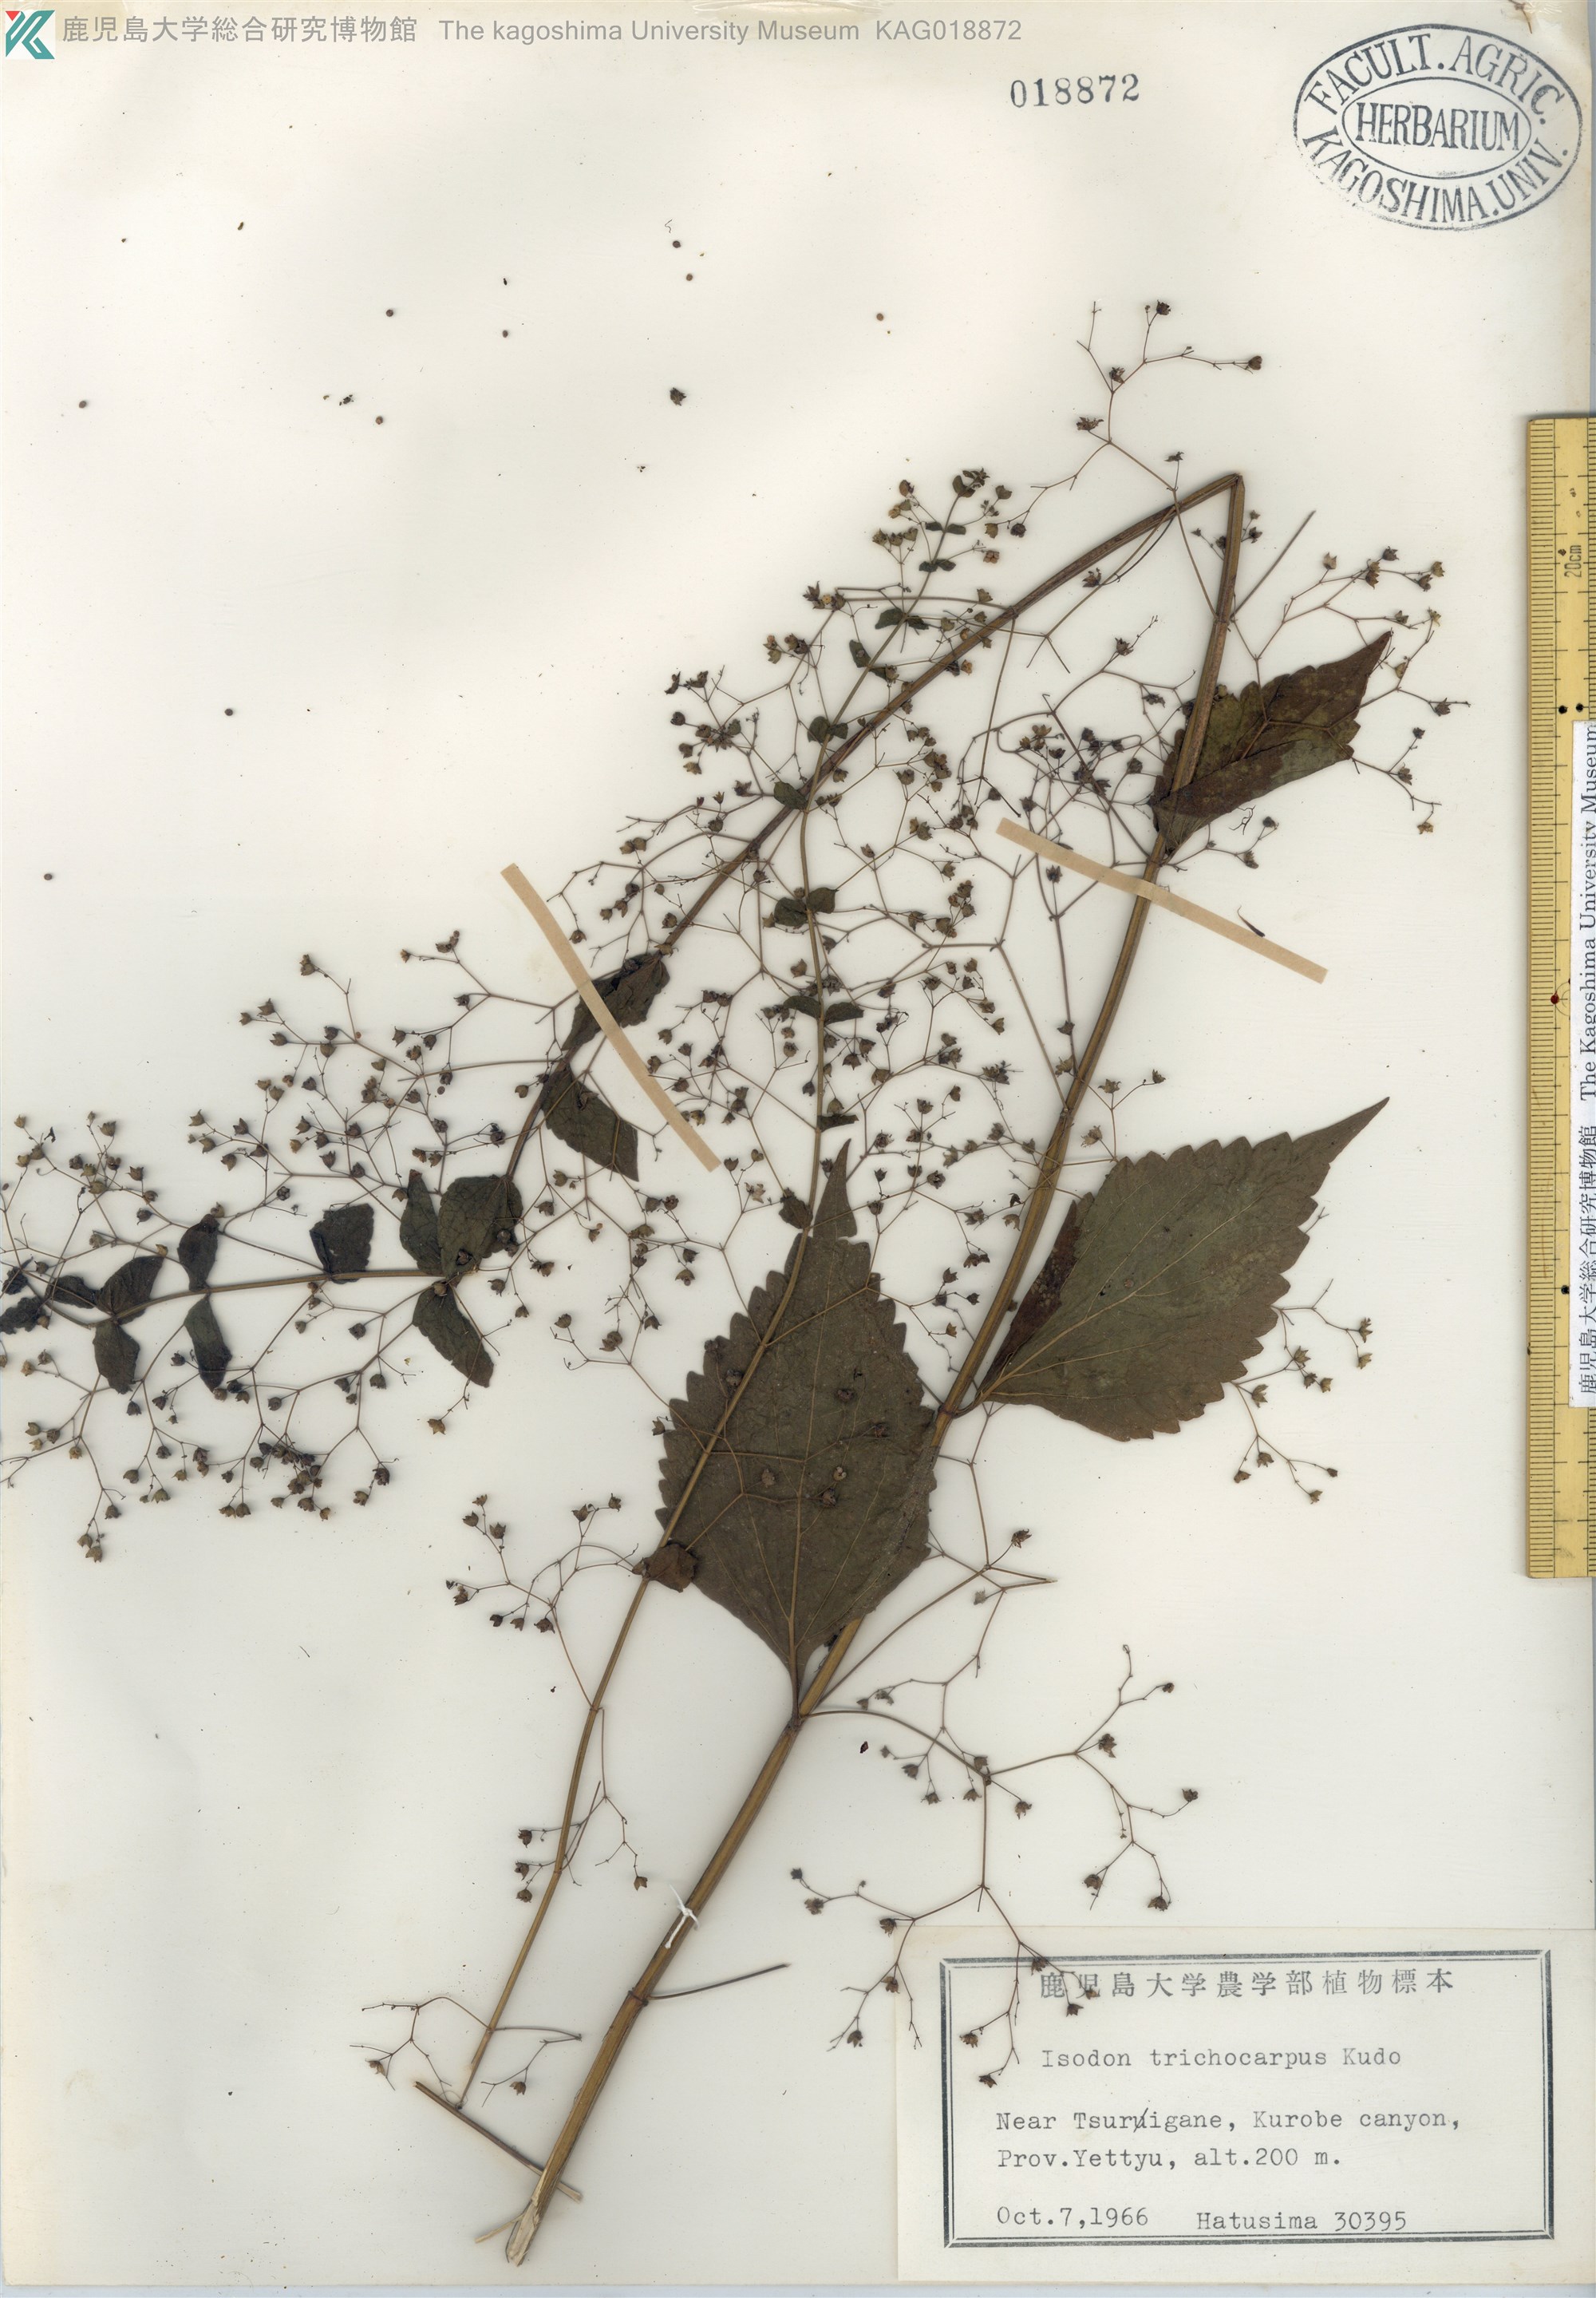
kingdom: Plantae
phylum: Tracheophyta
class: Magnoliopsida
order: Lamiales
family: Lamiaceae
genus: Isodon
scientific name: Isodon trichocarpus
